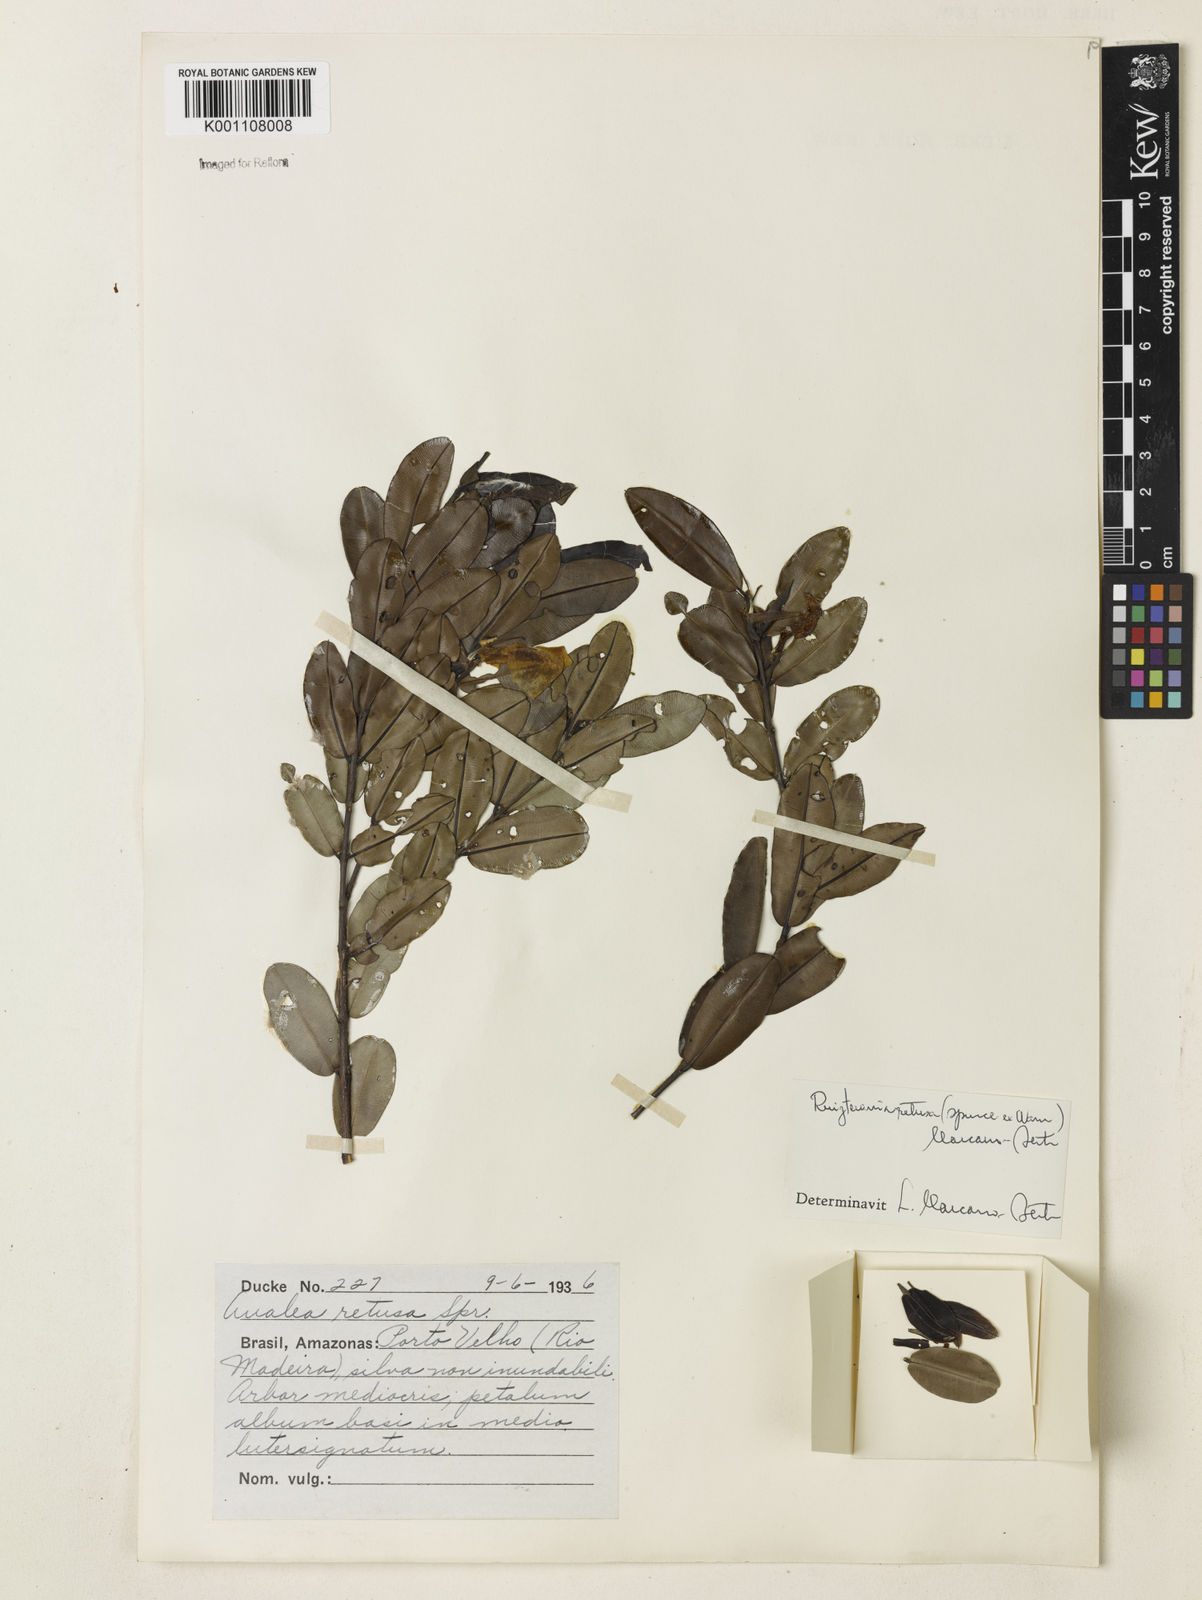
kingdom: Plantae
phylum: Tracheophyta
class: Magnoliopsida
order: Myrtales
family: Vochysiaceae
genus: Ruizterania
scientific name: Ruizterania retusa
